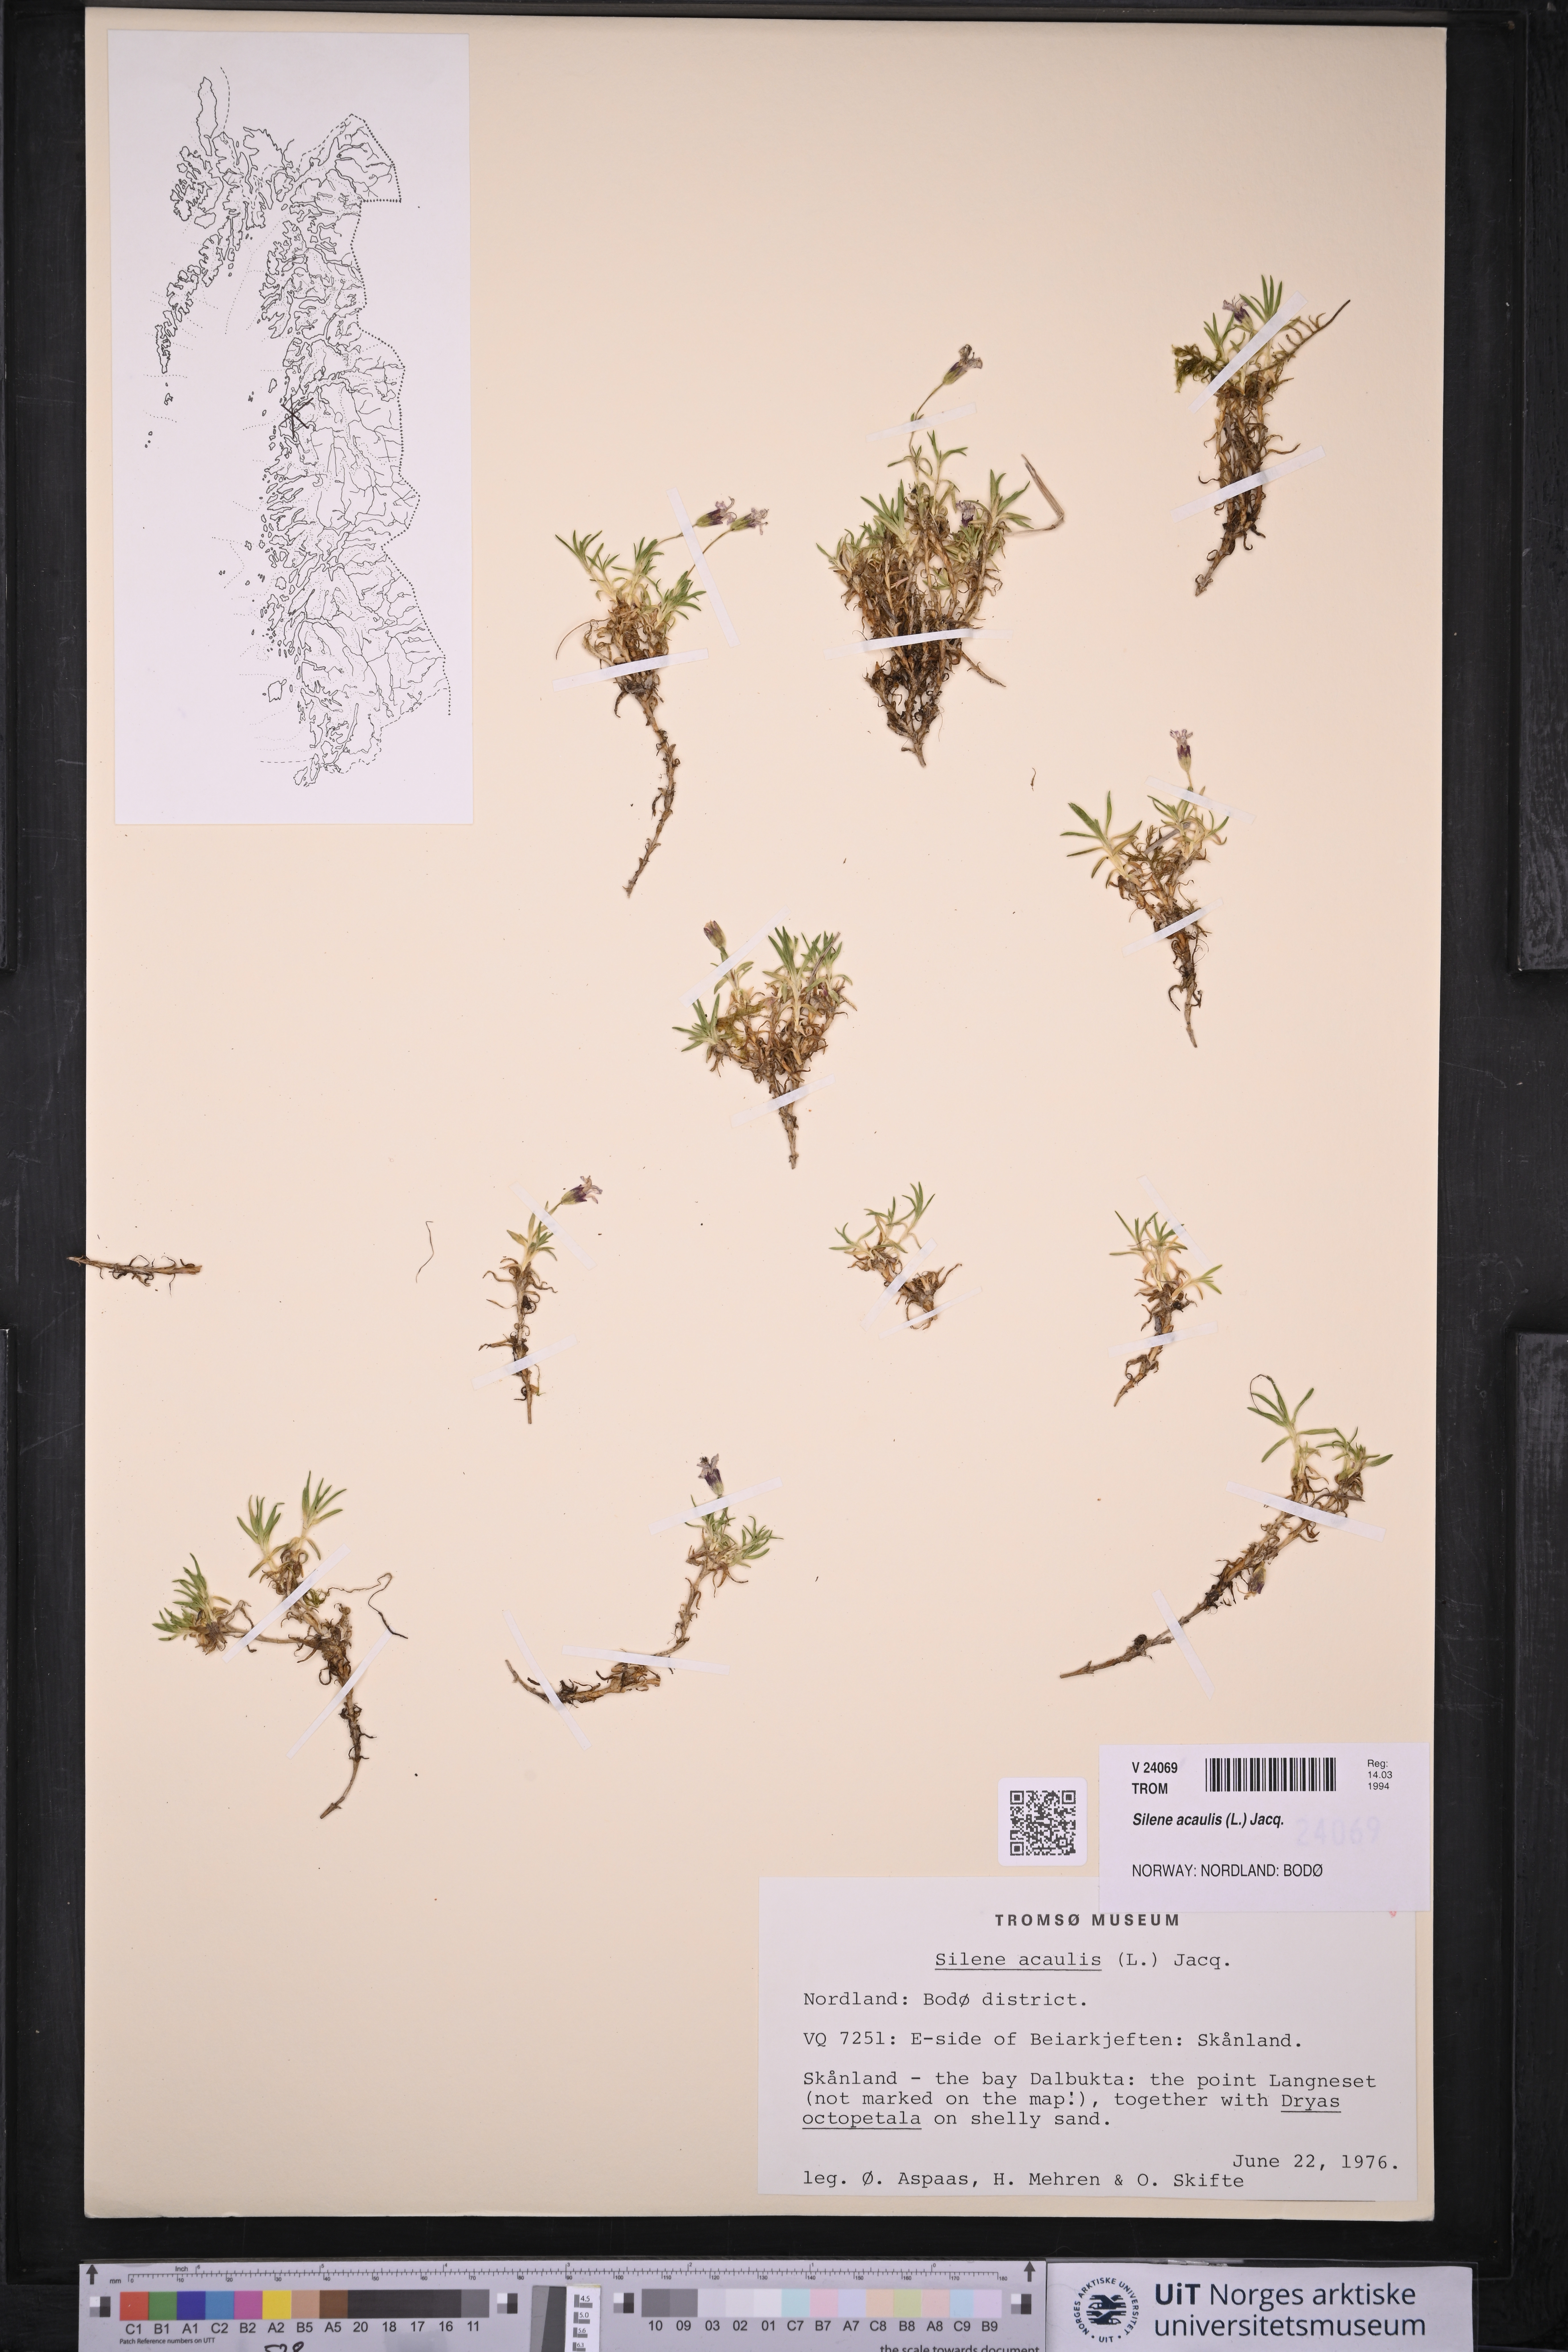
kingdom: Plantae
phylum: Tracheophyta
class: Magnoliopsida
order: Caryophyllales
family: Caryophyllaceae
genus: Silene
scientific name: Silene acaulis
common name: Moss campion
